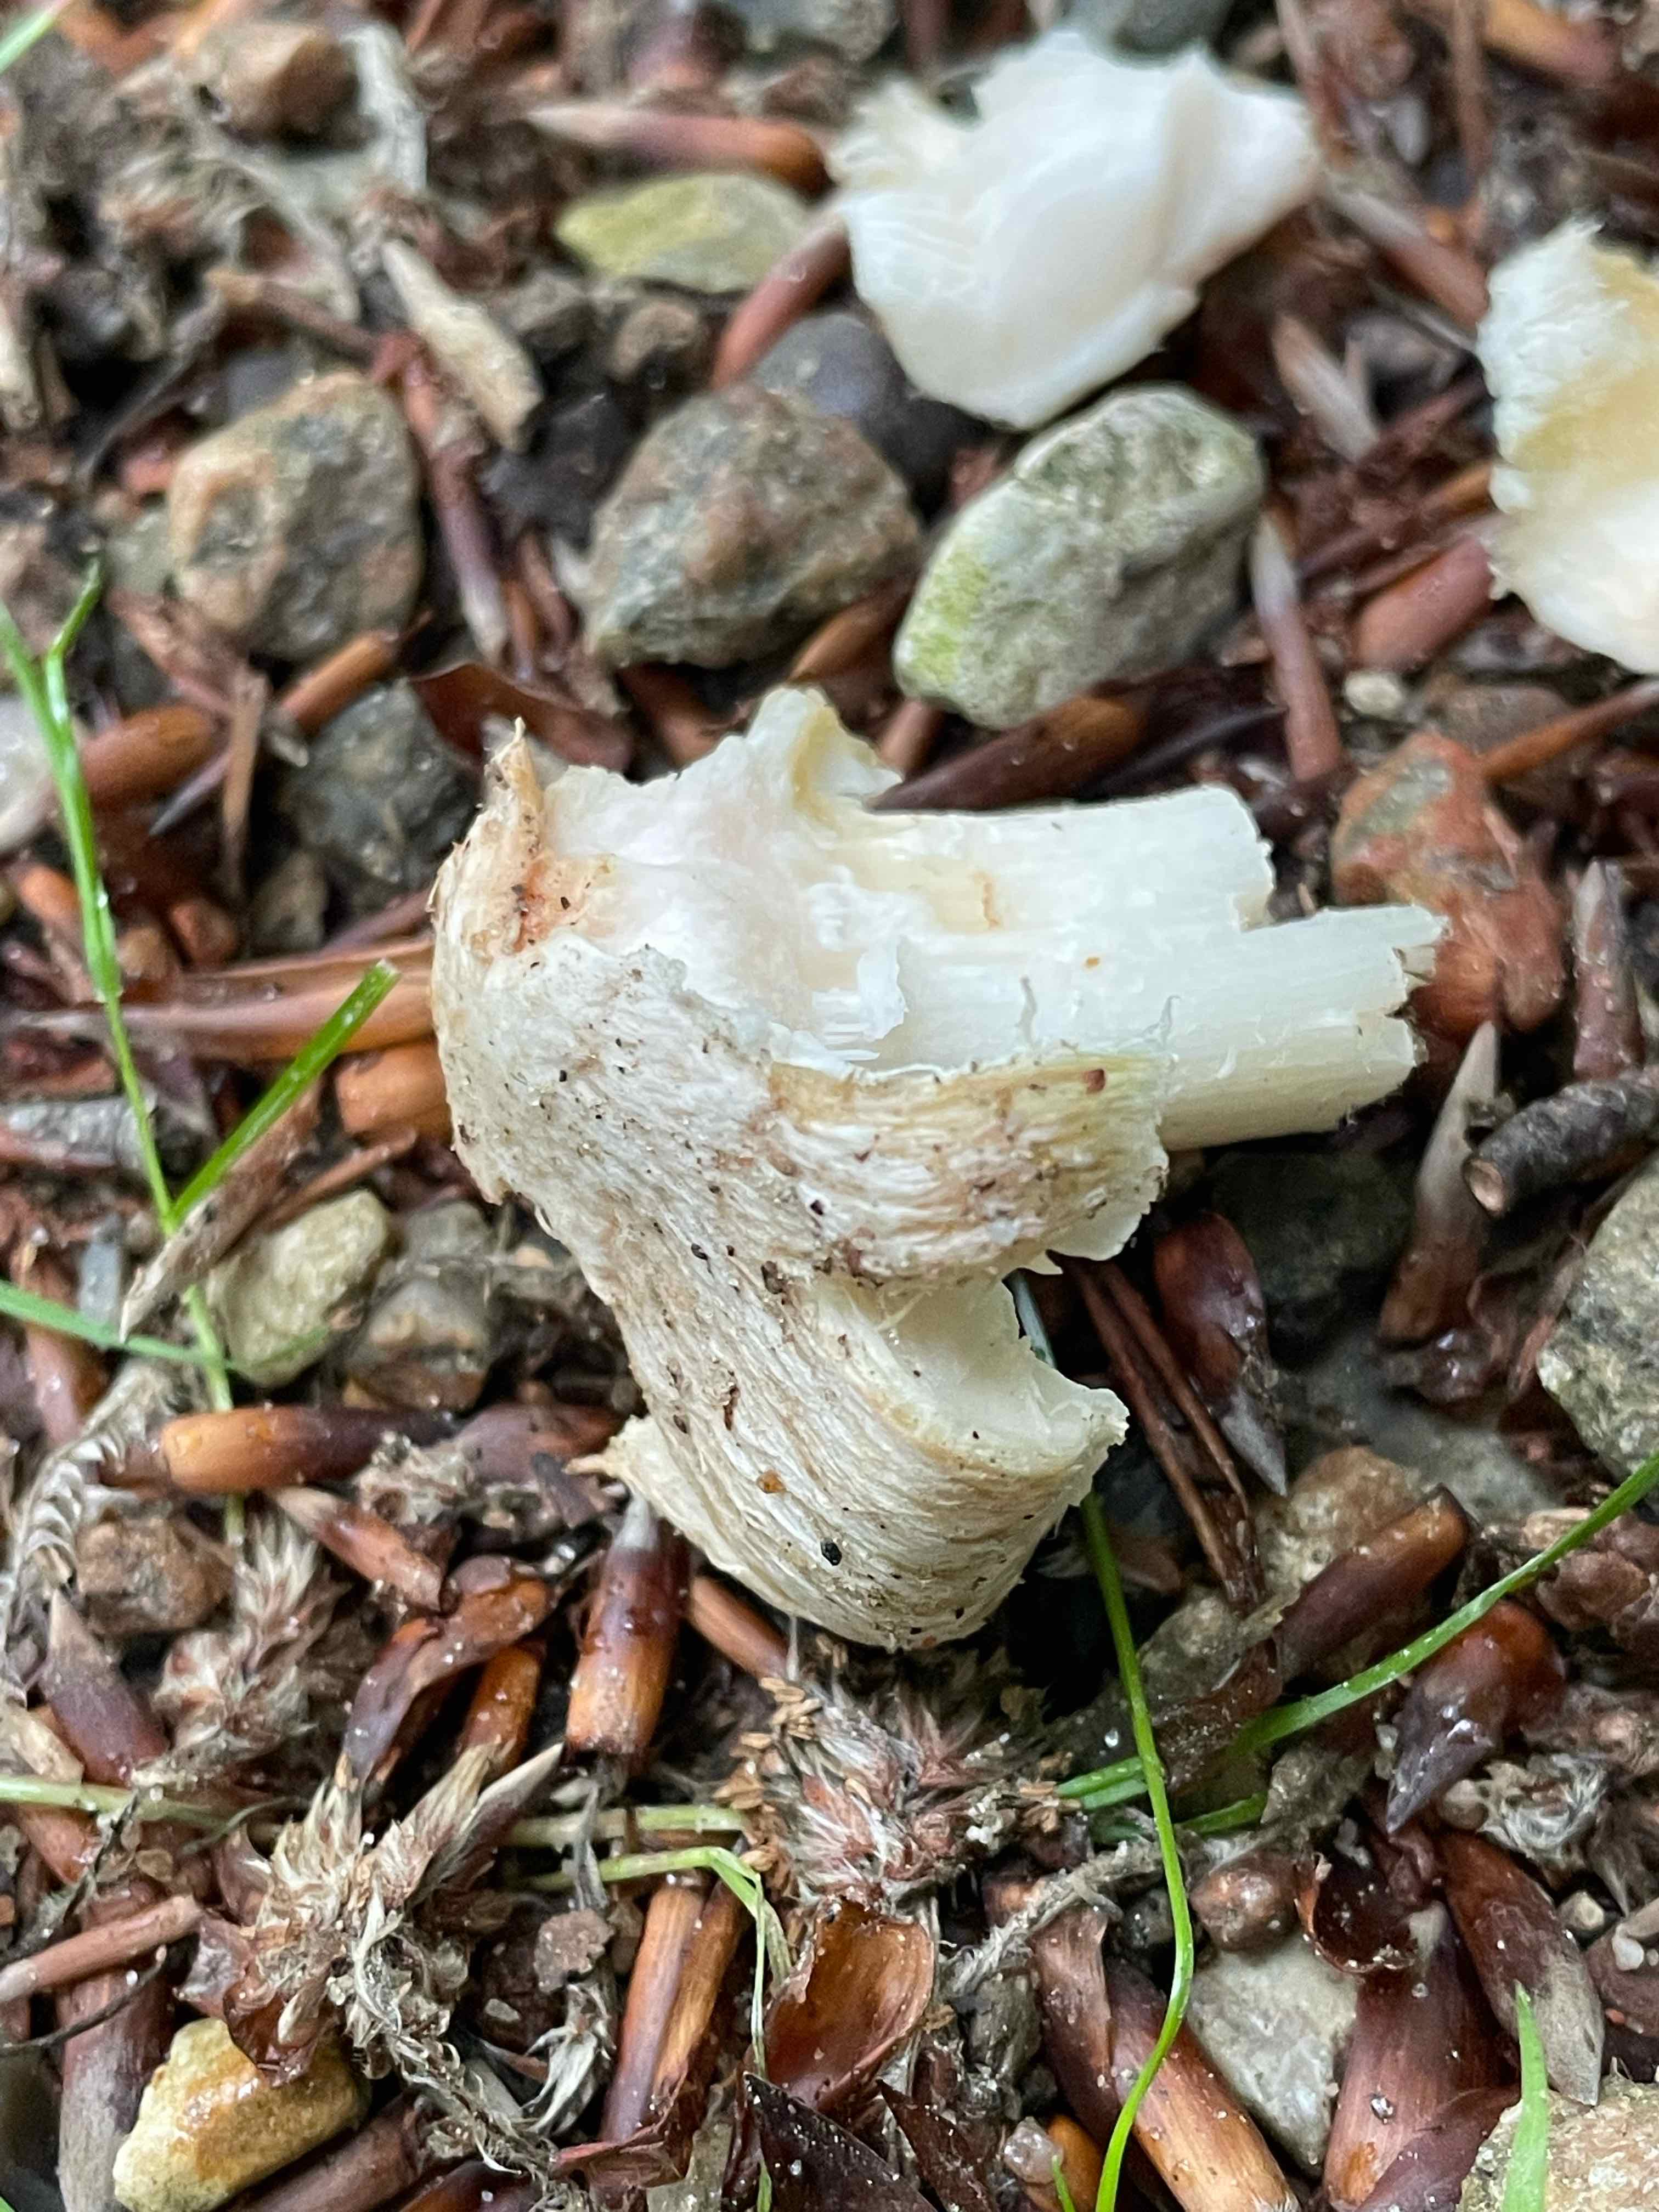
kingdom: Fungi
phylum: Basidiomycota
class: Agaricomycetes
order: Agaricales
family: Inocybaceae
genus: Inosperma
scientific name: Inosperma erubescens
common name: giftig trævlhat
